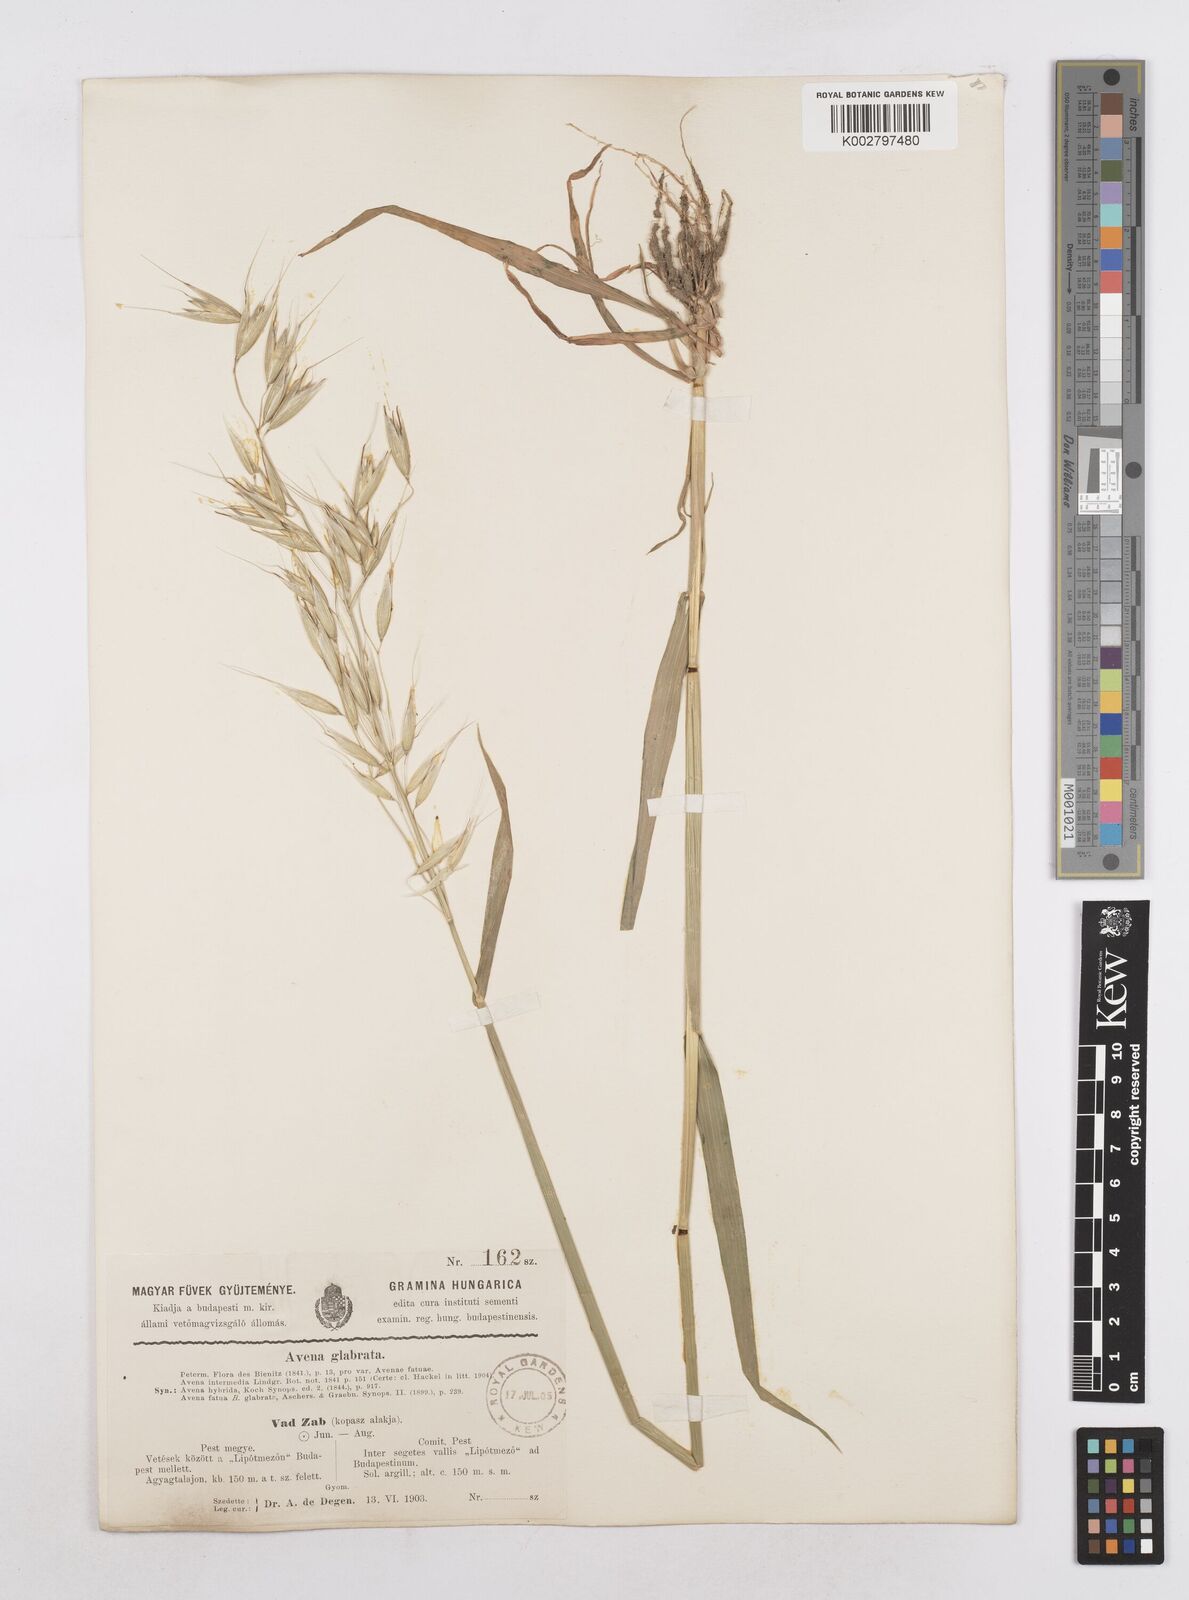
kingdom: Plantae
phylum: Tracheophyta
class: Liliopsida
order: Poales
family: Poaceae
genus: Avena
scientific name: Avena fatua
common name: Wild oat
